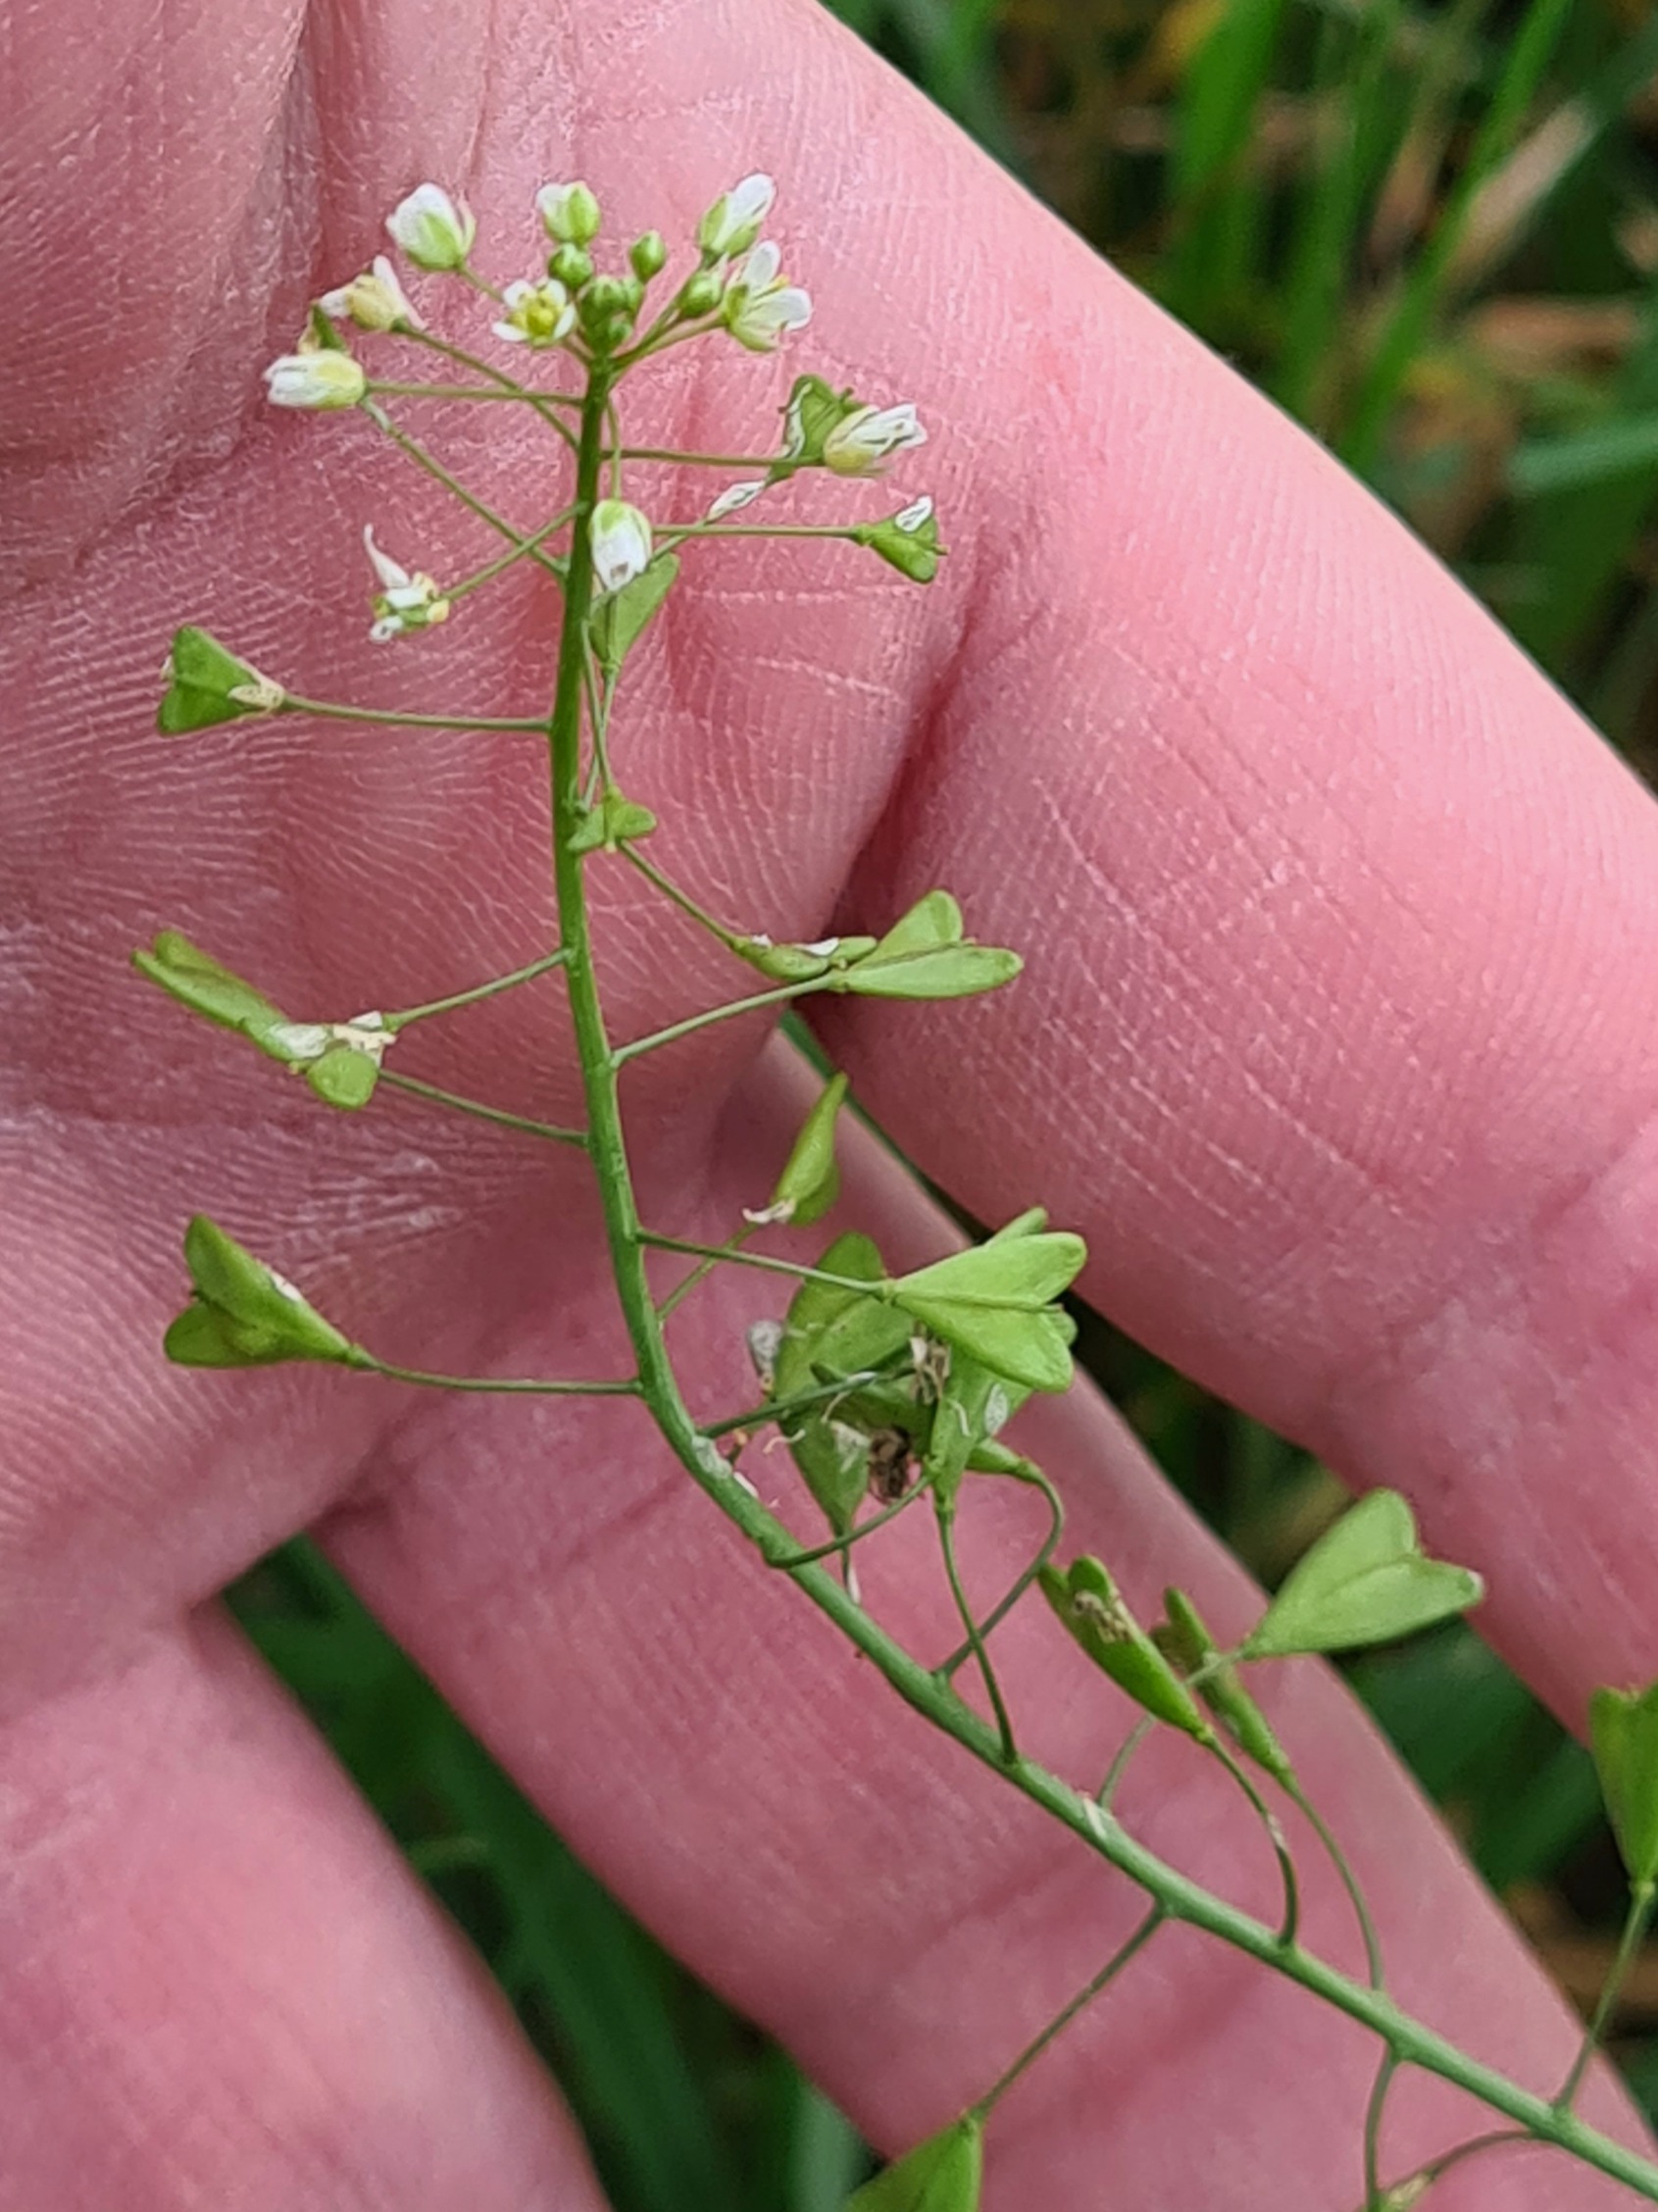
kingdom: Plantae
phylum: Tracheophyta
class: Magnoliopsida
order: Brassicales
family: Brassicaceae
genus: Capsella
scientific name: Capsella bursa-pastoris
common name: Hyrdetaske
